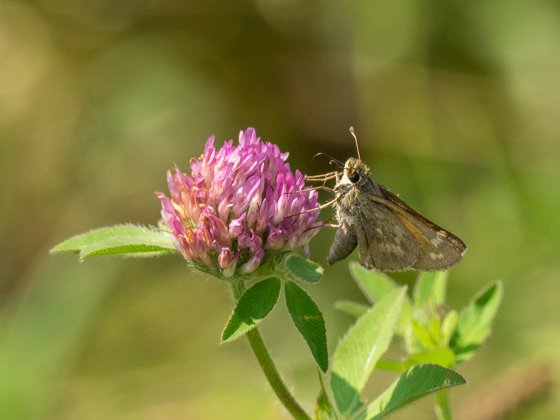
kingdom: Animalia
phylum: Arthropoda
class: Insecta
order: Lepidoptera
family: Hesperiidae
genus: Atalopedes
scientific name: Atalopedes campestris
